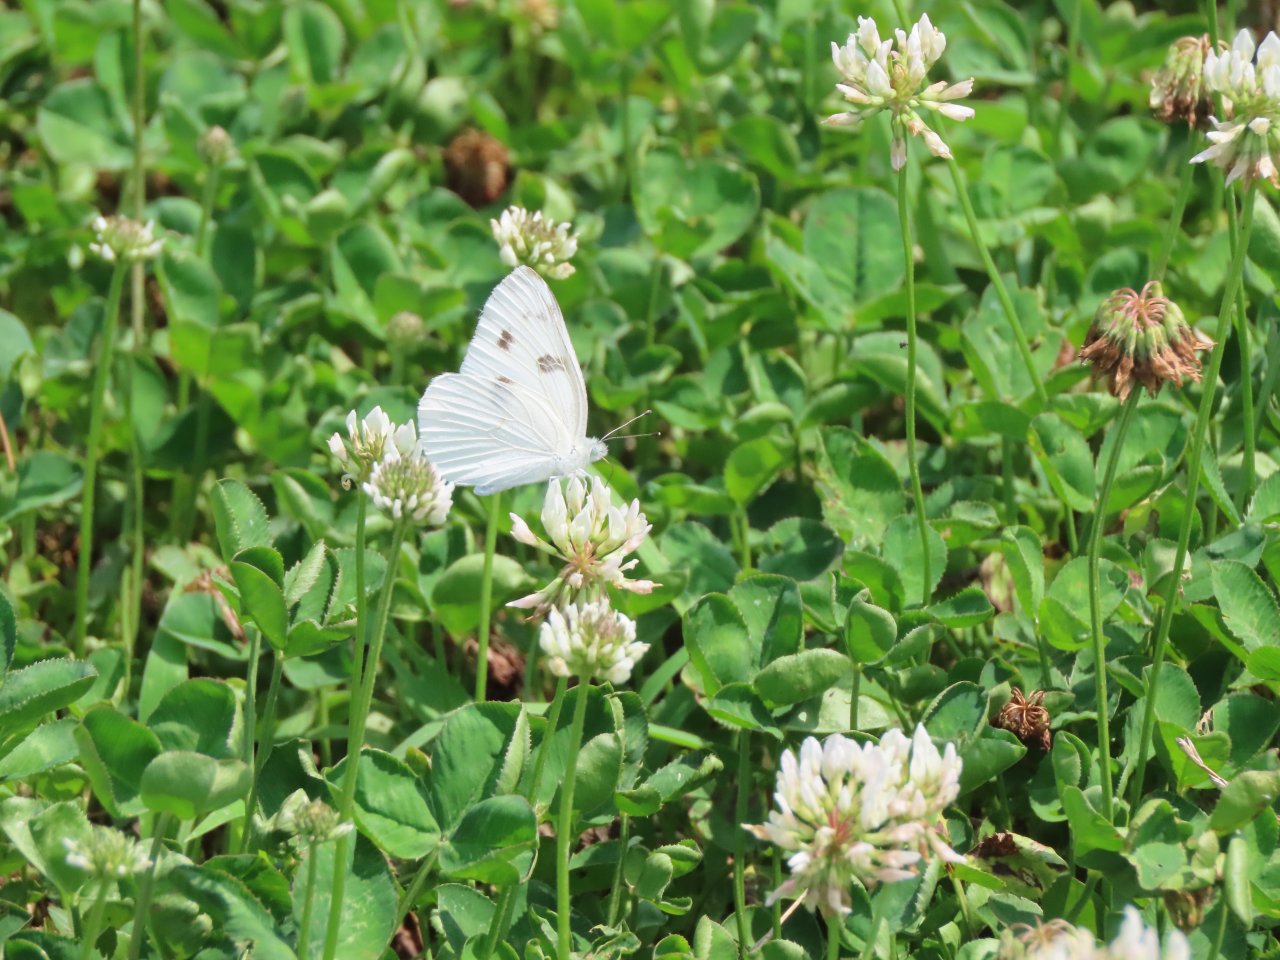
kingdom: Animalia
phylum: Arthropoda
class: Insecta
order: Lepidoptera
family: Pieridae
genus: Pontia
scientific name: Pontia protodice
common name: Checkered White
